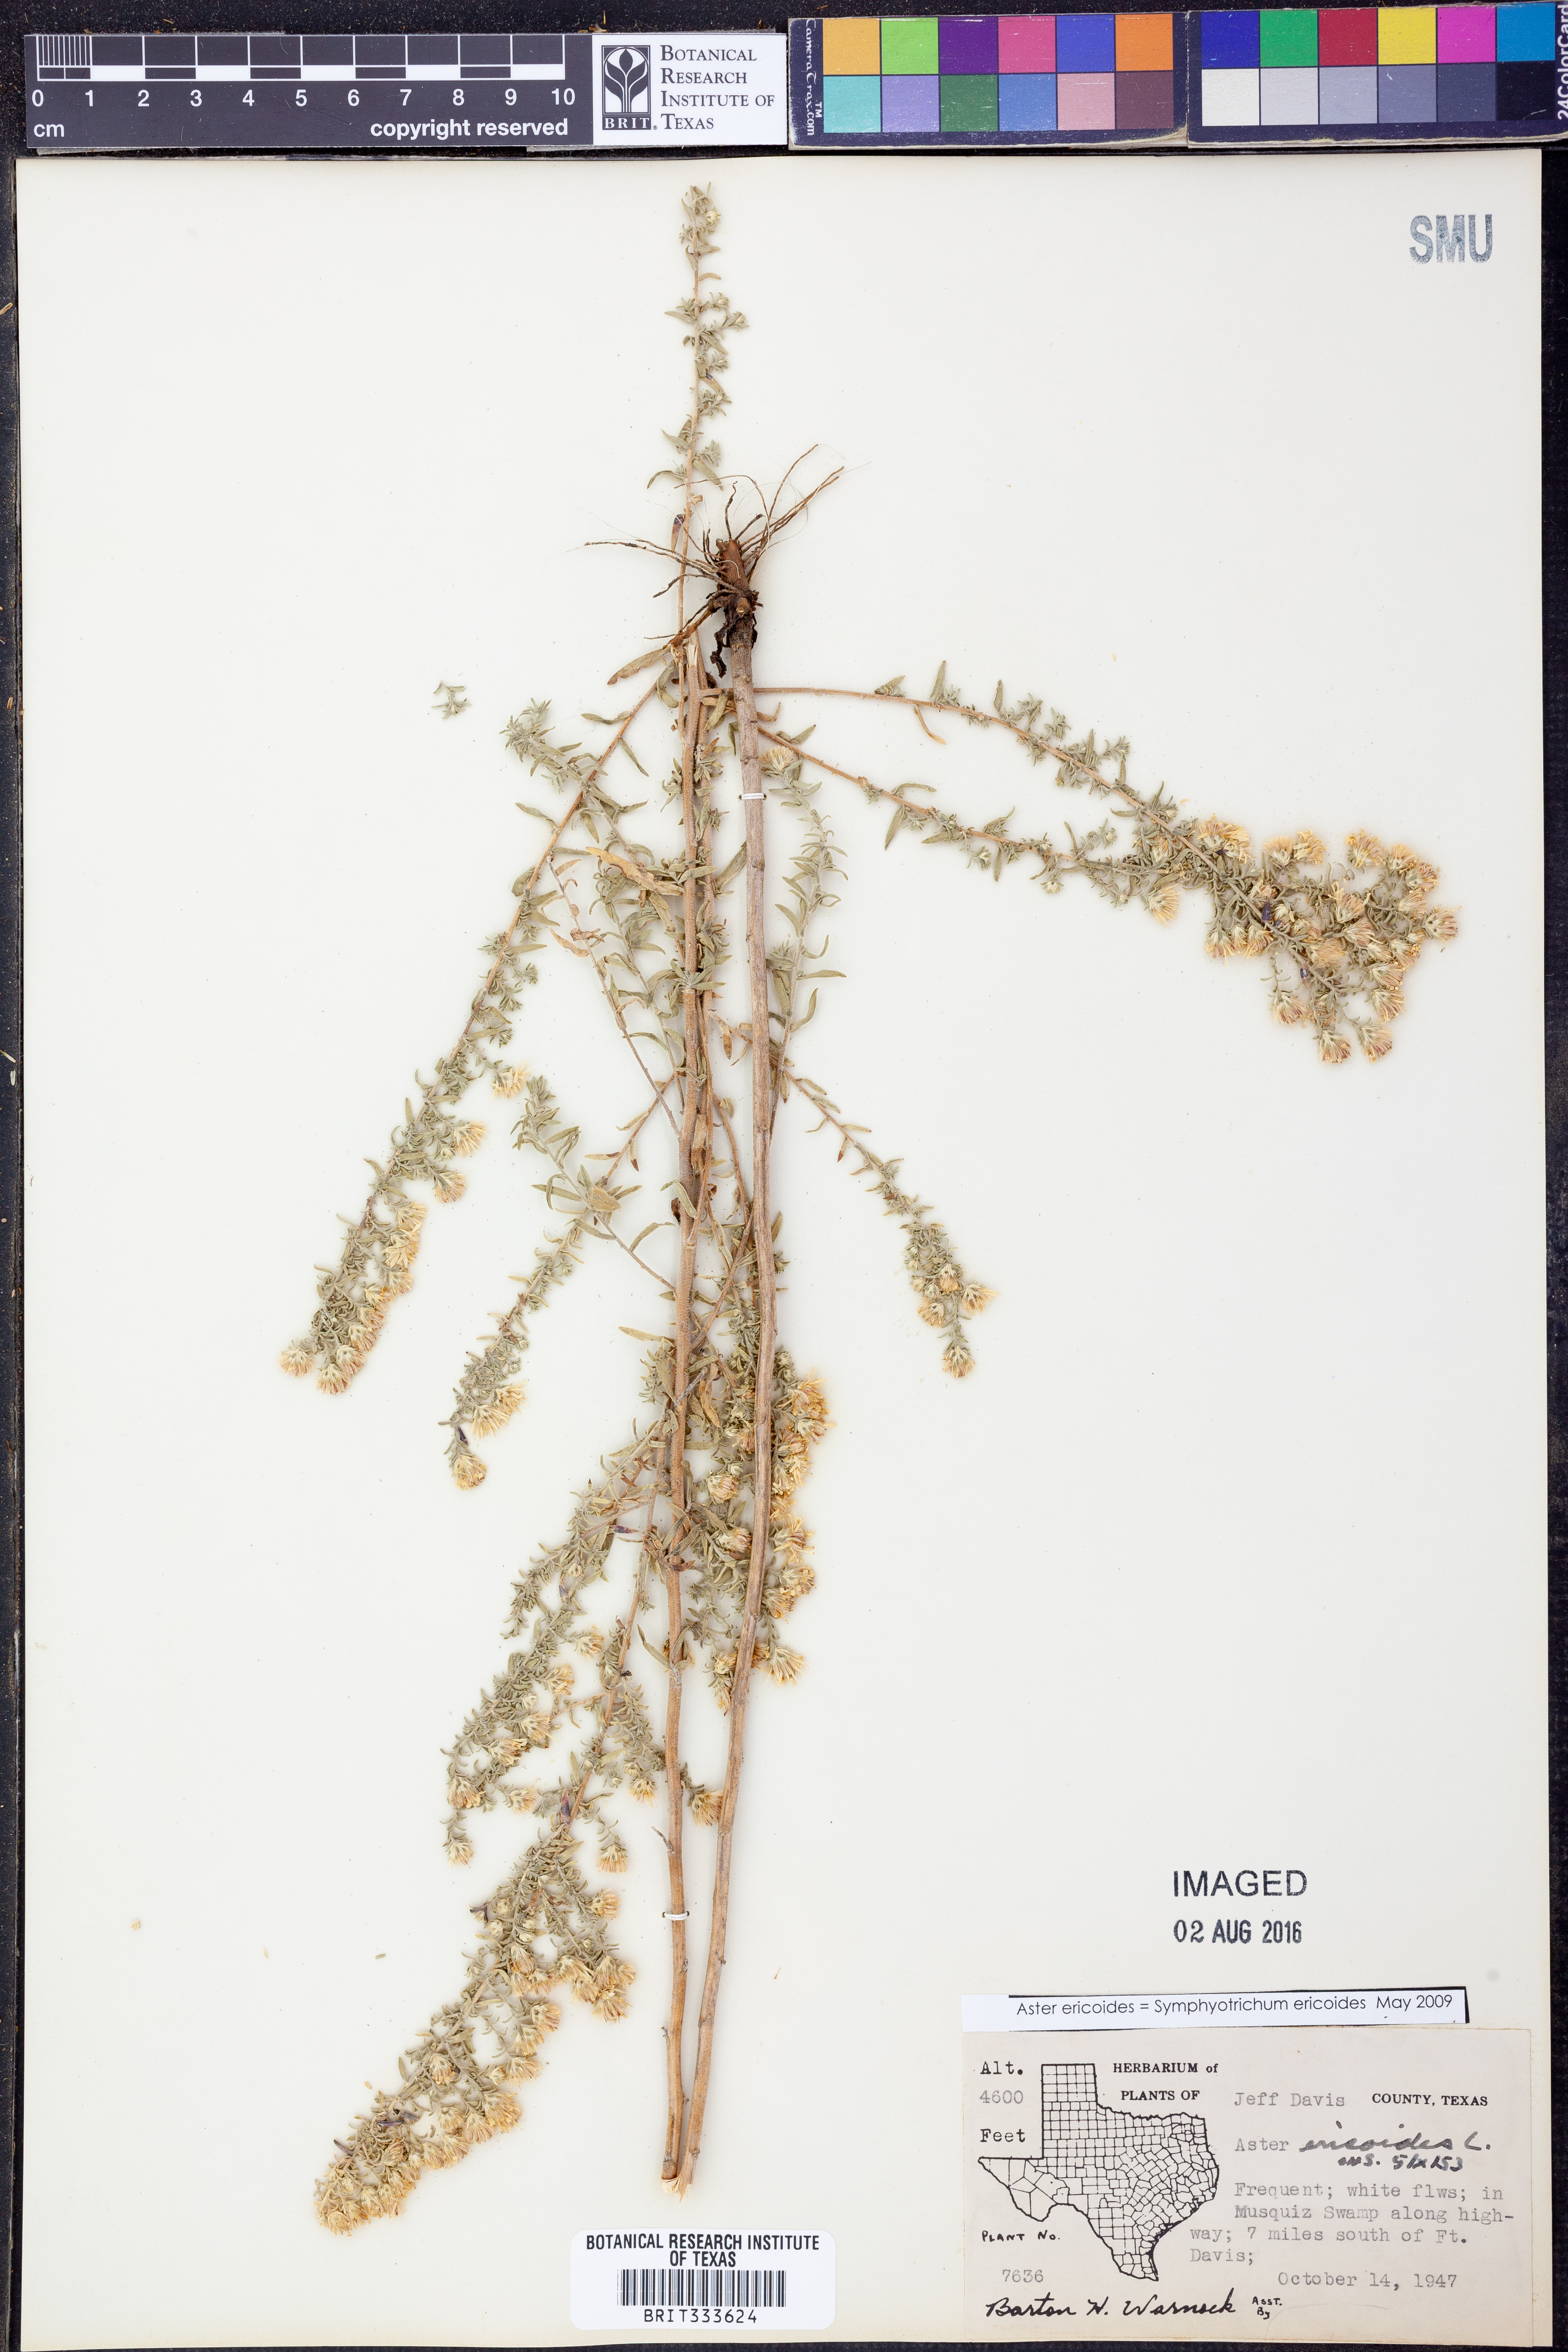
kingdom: Plantae
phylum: Tracheophyta
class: Magnoliopsida
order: Asterales
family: Asteraceae
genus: Symphyotrichum
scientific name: Symphyotrichum ericoides
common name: Heath aster
